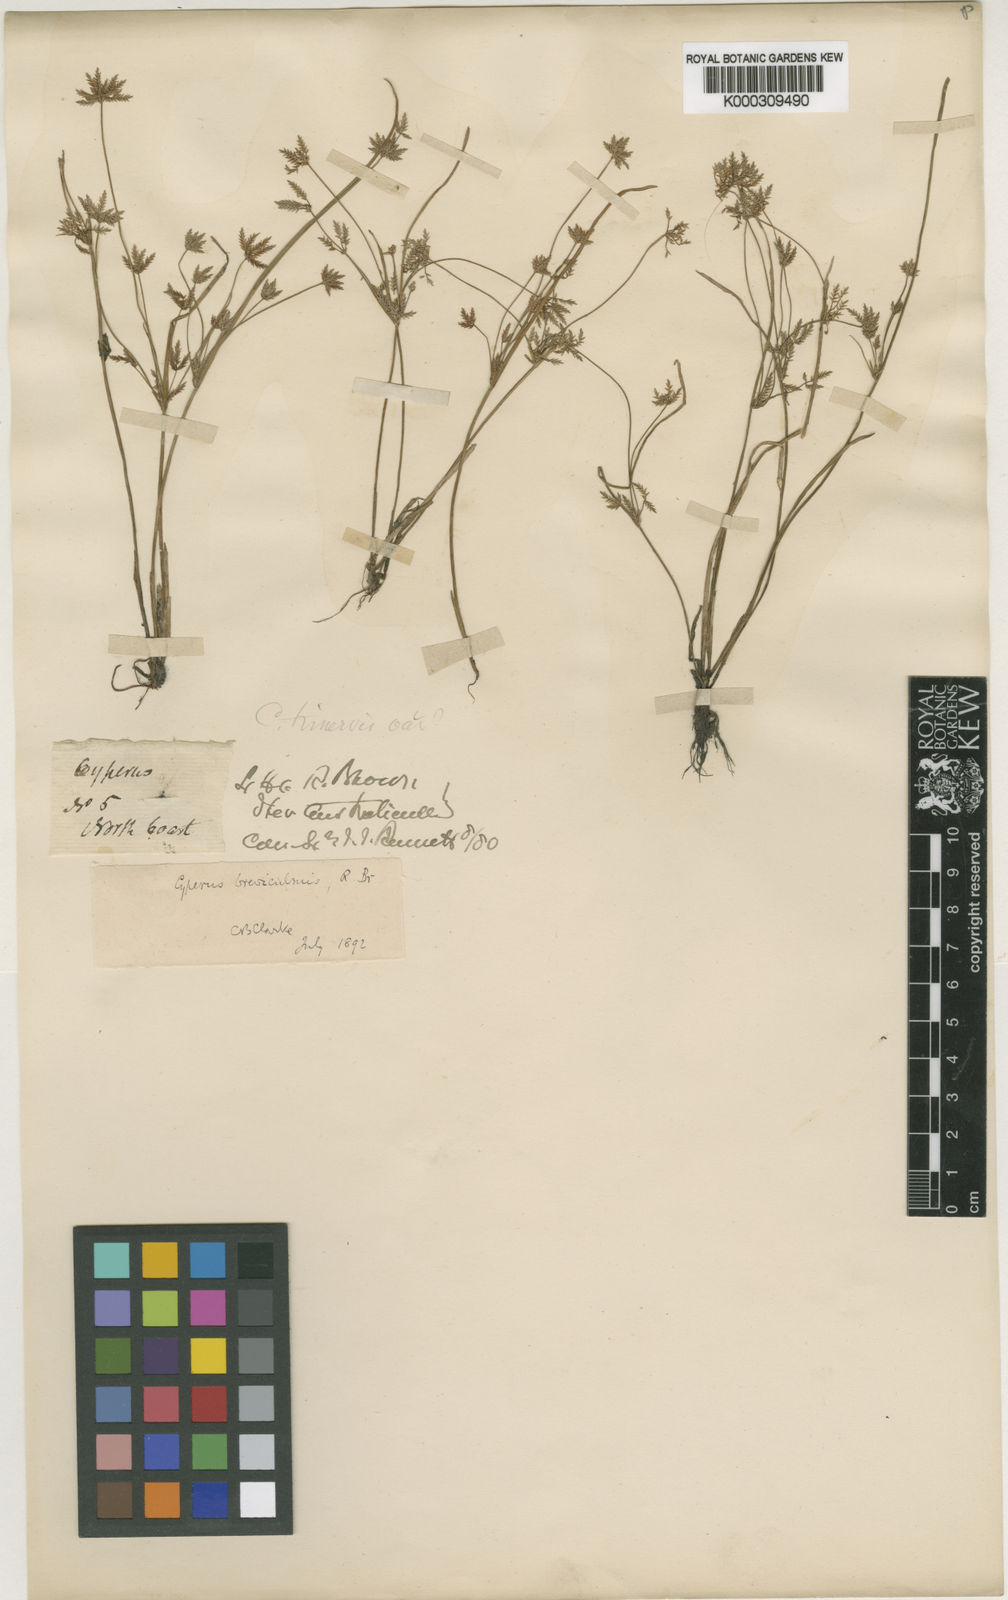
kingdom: Plantae
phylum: Tracheophyta
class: Liliopsida
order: Poales
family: Cyperaceae
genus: Cyperus
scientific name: Cyperus trinervis
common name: Australian flatsedge
